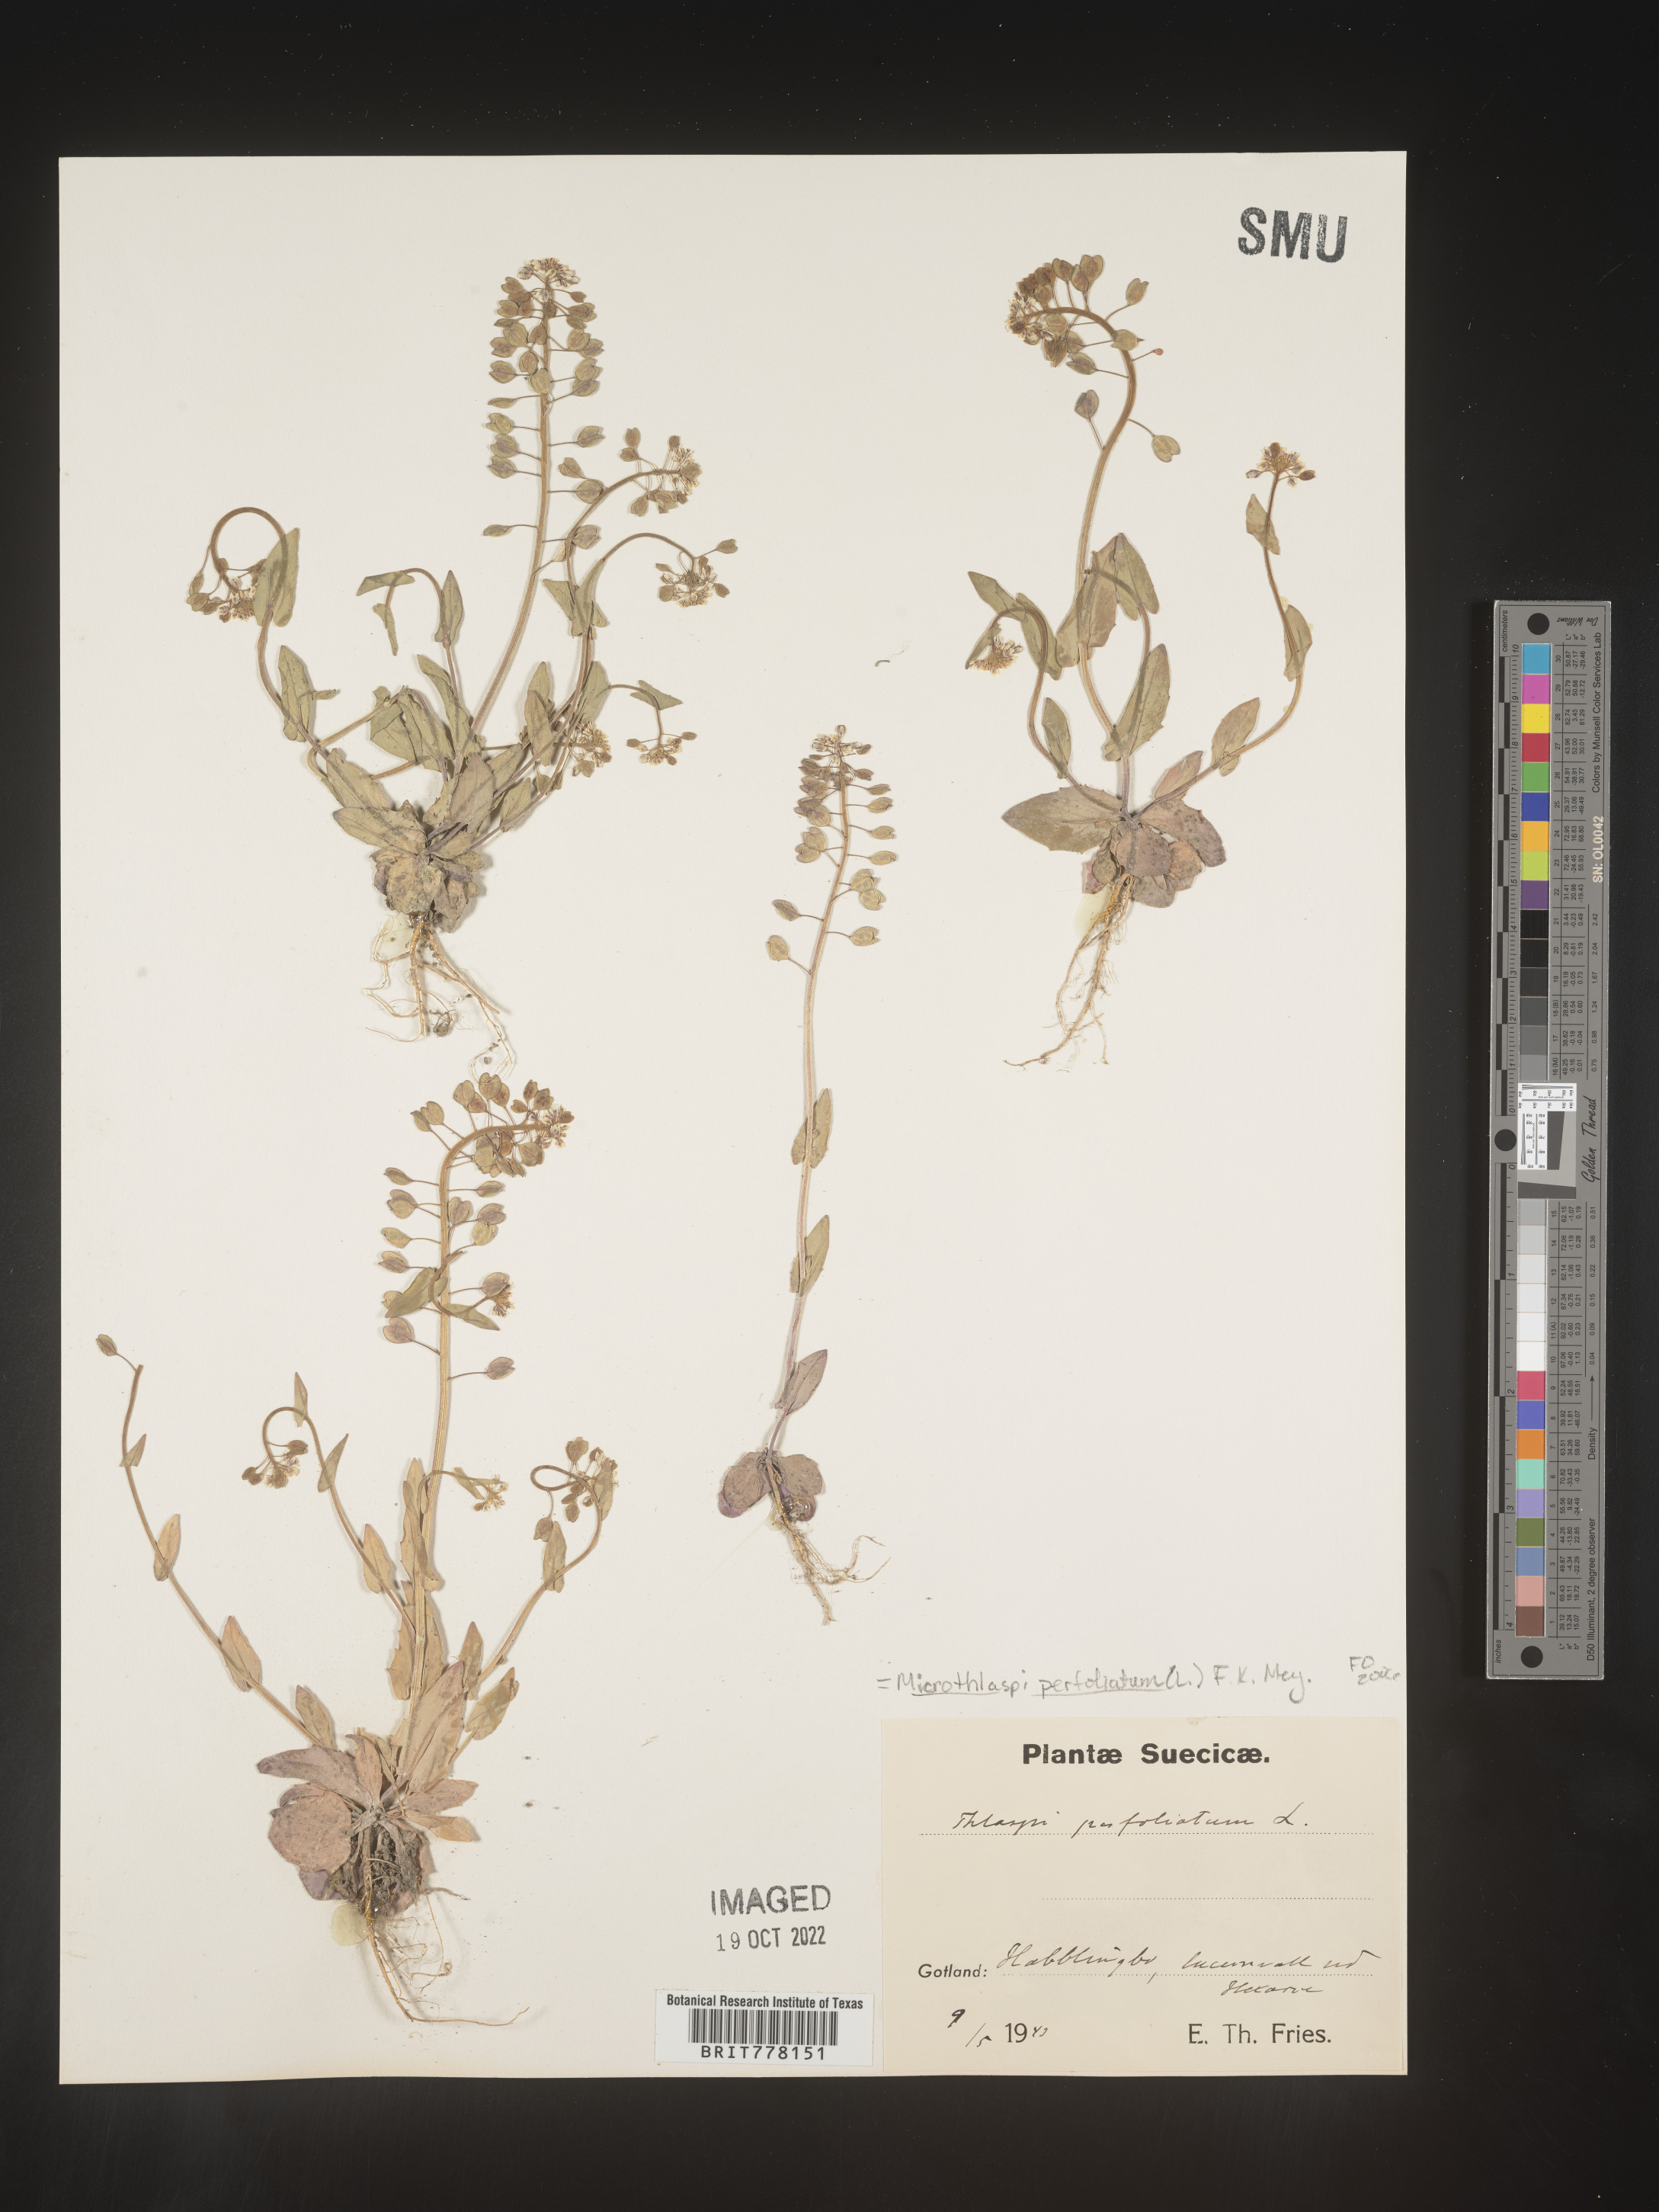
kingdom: Plantae
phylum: Tracheophyta
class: Magnoliopsida
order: Brassicales
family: Brassicaceae
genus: Noccaea
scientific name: Noccaea
